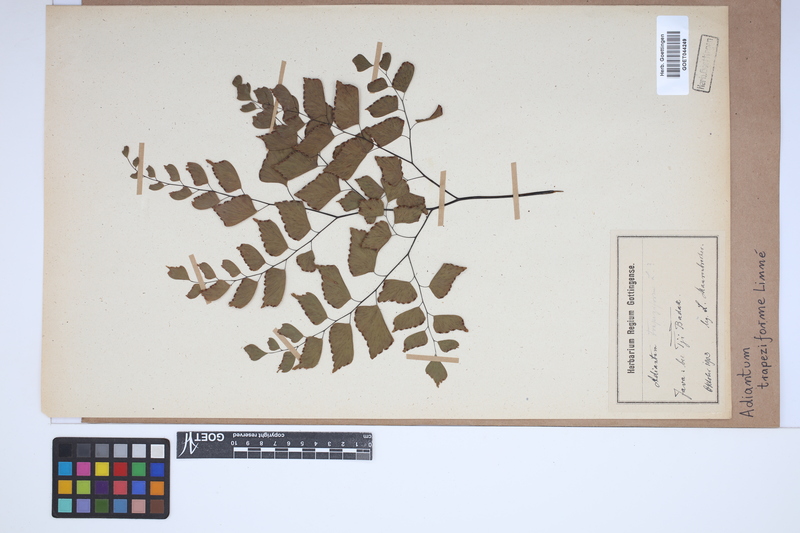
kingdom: Plantae
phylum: Tracheophyta
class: Polypodiopsida
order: Polypodiales
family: Pteridaceae
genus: Adiantum
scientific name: Adiantum trapeziforme
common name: Diamond maidenhair
